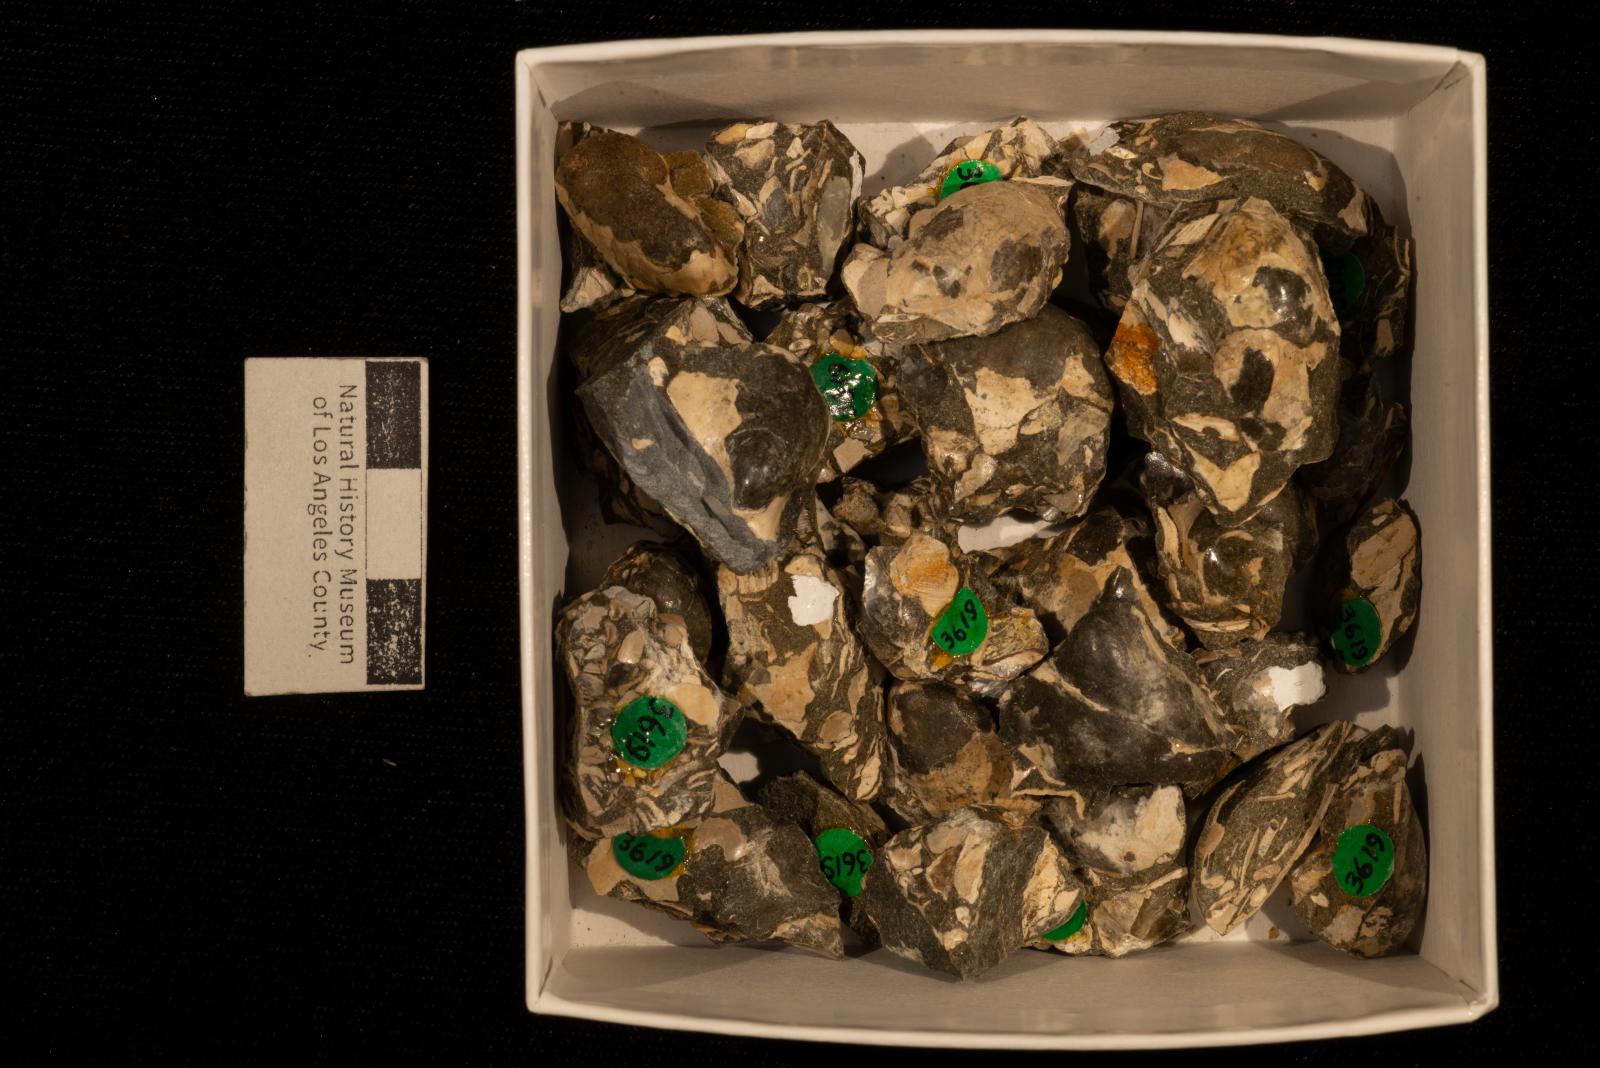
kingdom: Animalia
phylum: Mollusca
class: Bivalvia
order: Ostreida
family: Pteriidae
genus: Pteria
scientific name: Pteria pellucida
